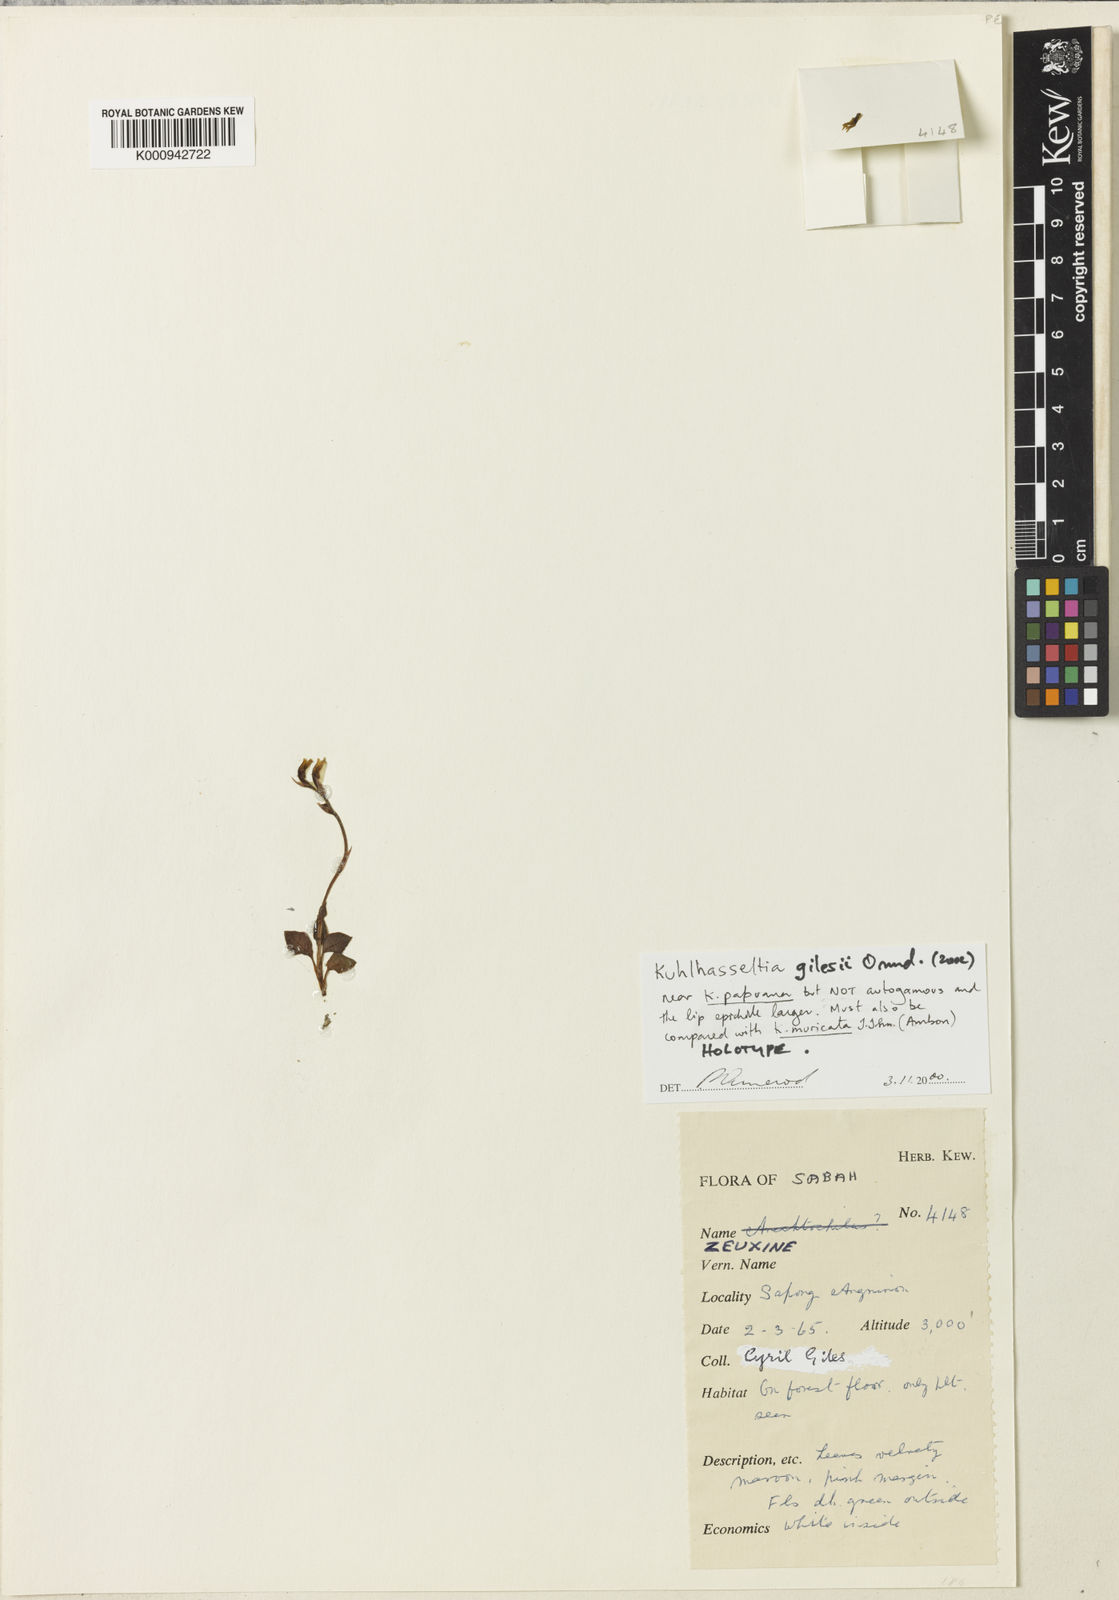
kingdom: Plantae
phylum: Tracheophyta
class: Liliopsida
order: Asparagales
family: Orchidaceae
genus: Odontochilus
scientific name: Odontochilus gilesii
